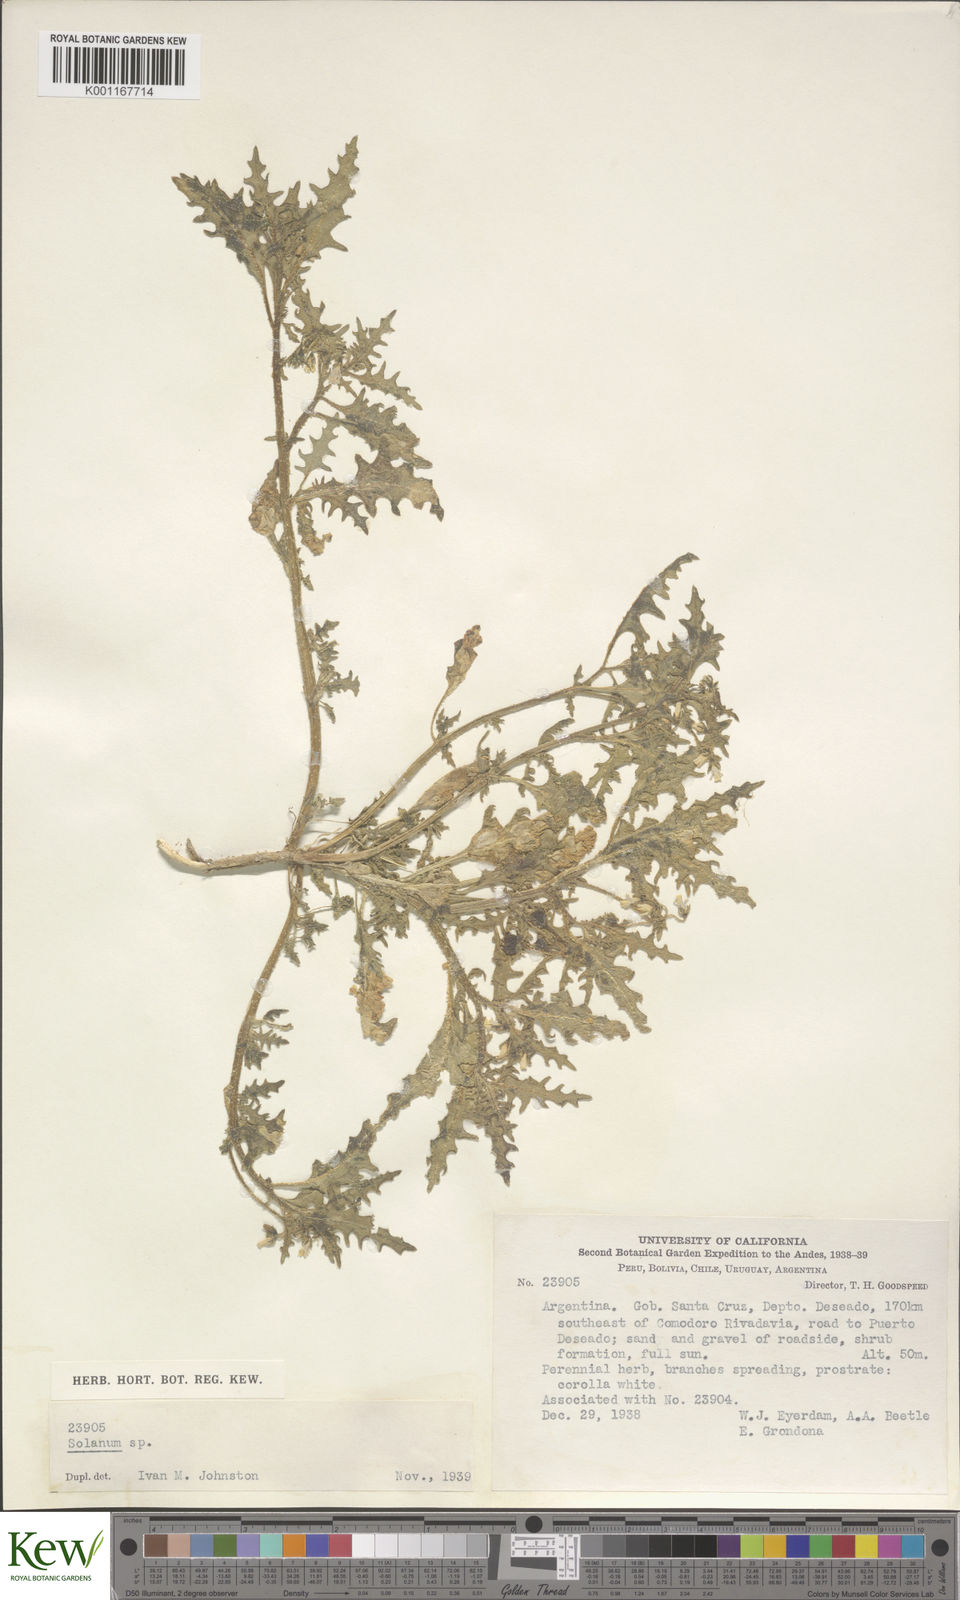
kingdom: Plantae
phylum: Tracheophyta
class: Magnoliopsida
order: Solanales
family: Solanaceae
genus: Solanum
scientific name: Solanum triflorum
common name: Small nightshade
